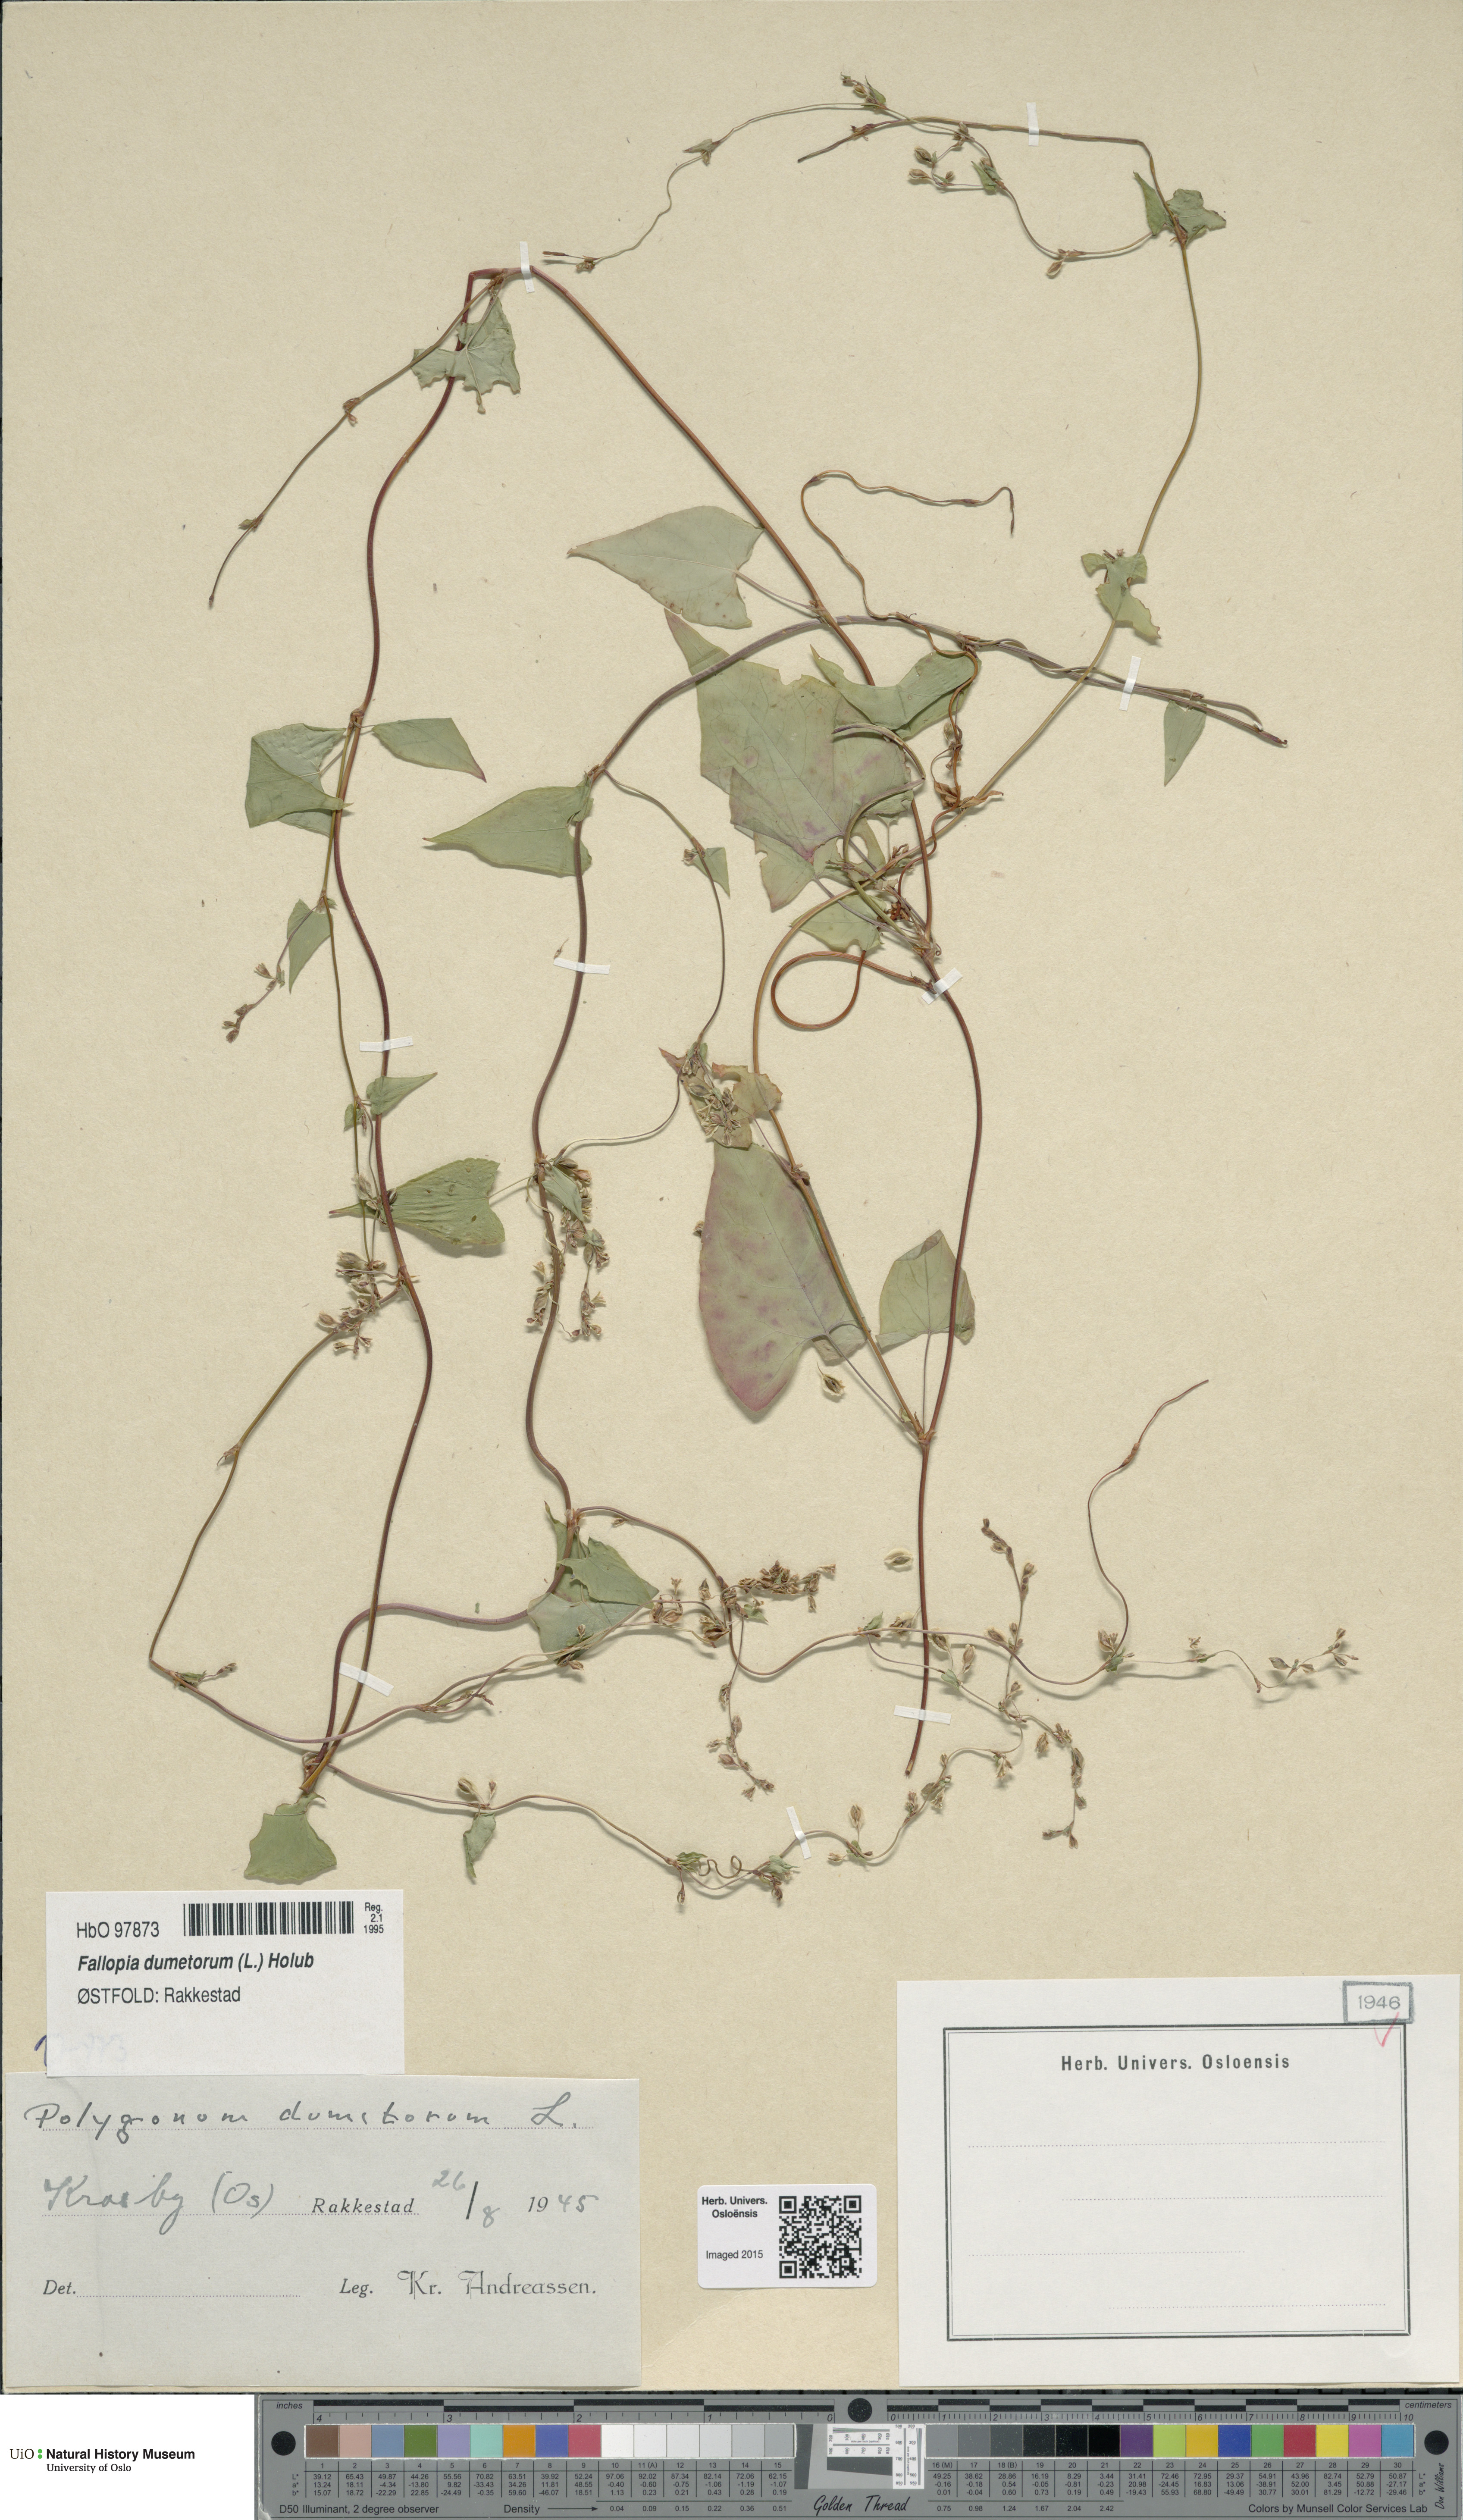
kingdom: Plantae
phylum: Tracheophyta
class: Magnoliopsida
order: Caryophyllales
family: Polygonaceae
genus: Fallopia
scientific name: Fallopia dumetorum
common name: Copse-bindweed
